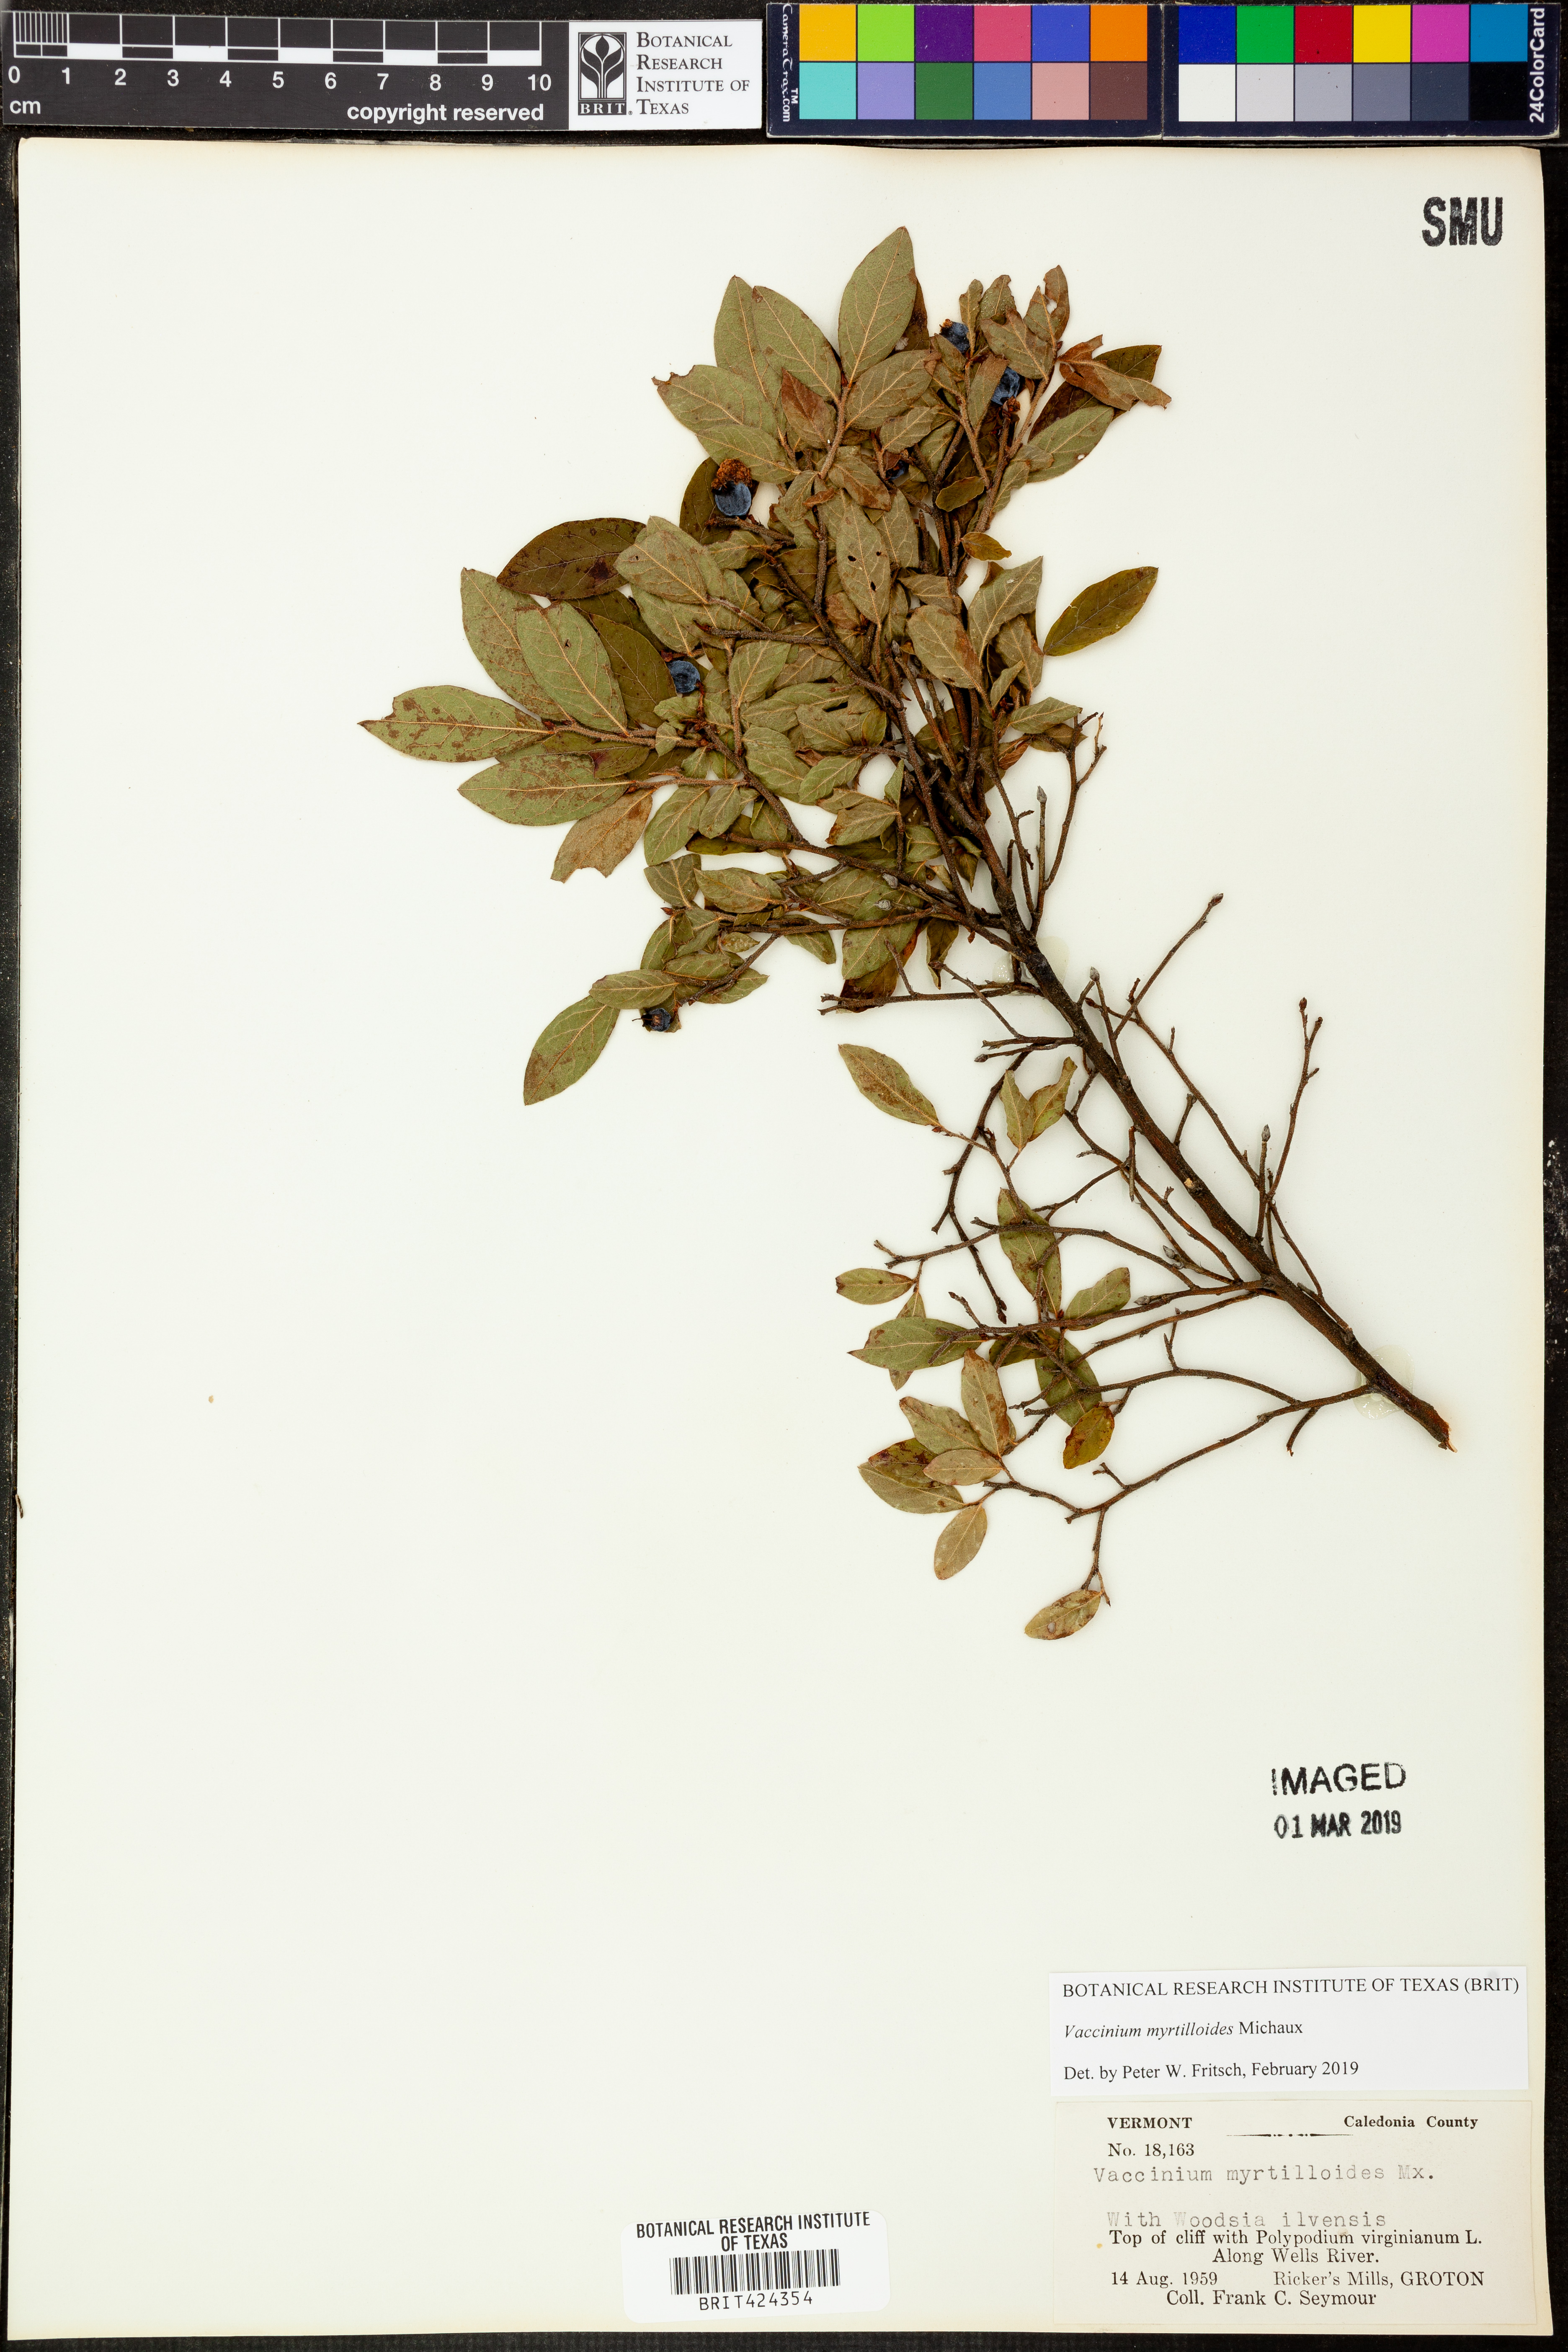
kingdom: Plantae
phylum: Tracheophyta
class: Magnoliopsida
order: Ericales
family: Ericaceae
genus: Vaccinium
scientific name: Vaccinium myrtilloides
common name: Canada blueberry
